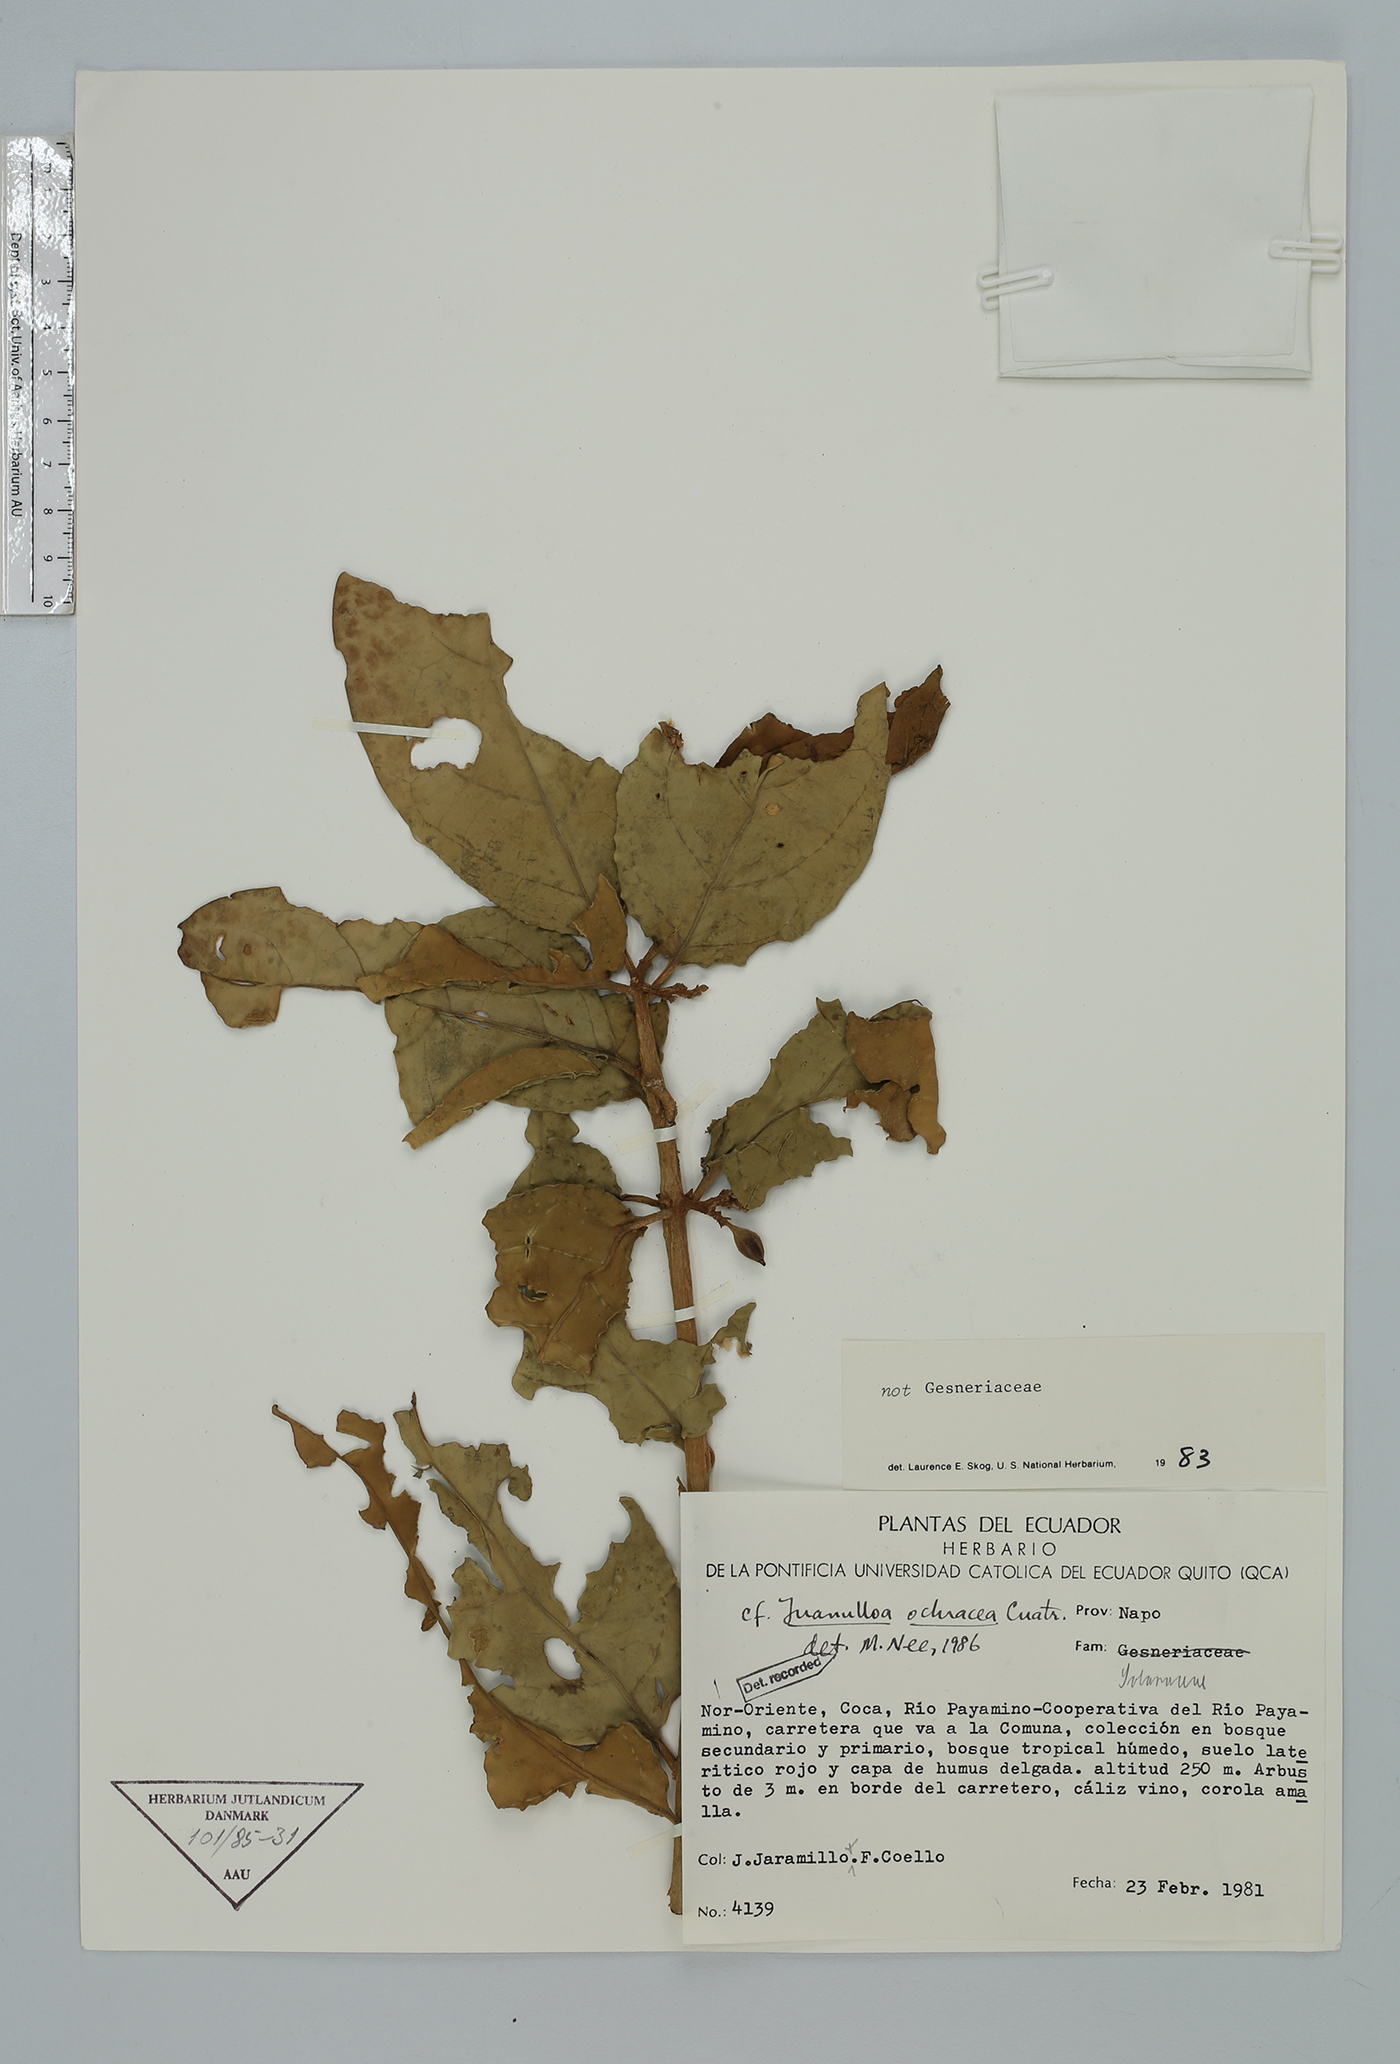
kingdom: Plantae
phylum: Tracheophyta
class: Magnoliopsida
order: Solanales
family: Solanaceae
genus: Hawkesiophyton
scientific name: Hawkesiophyton ochraceum
